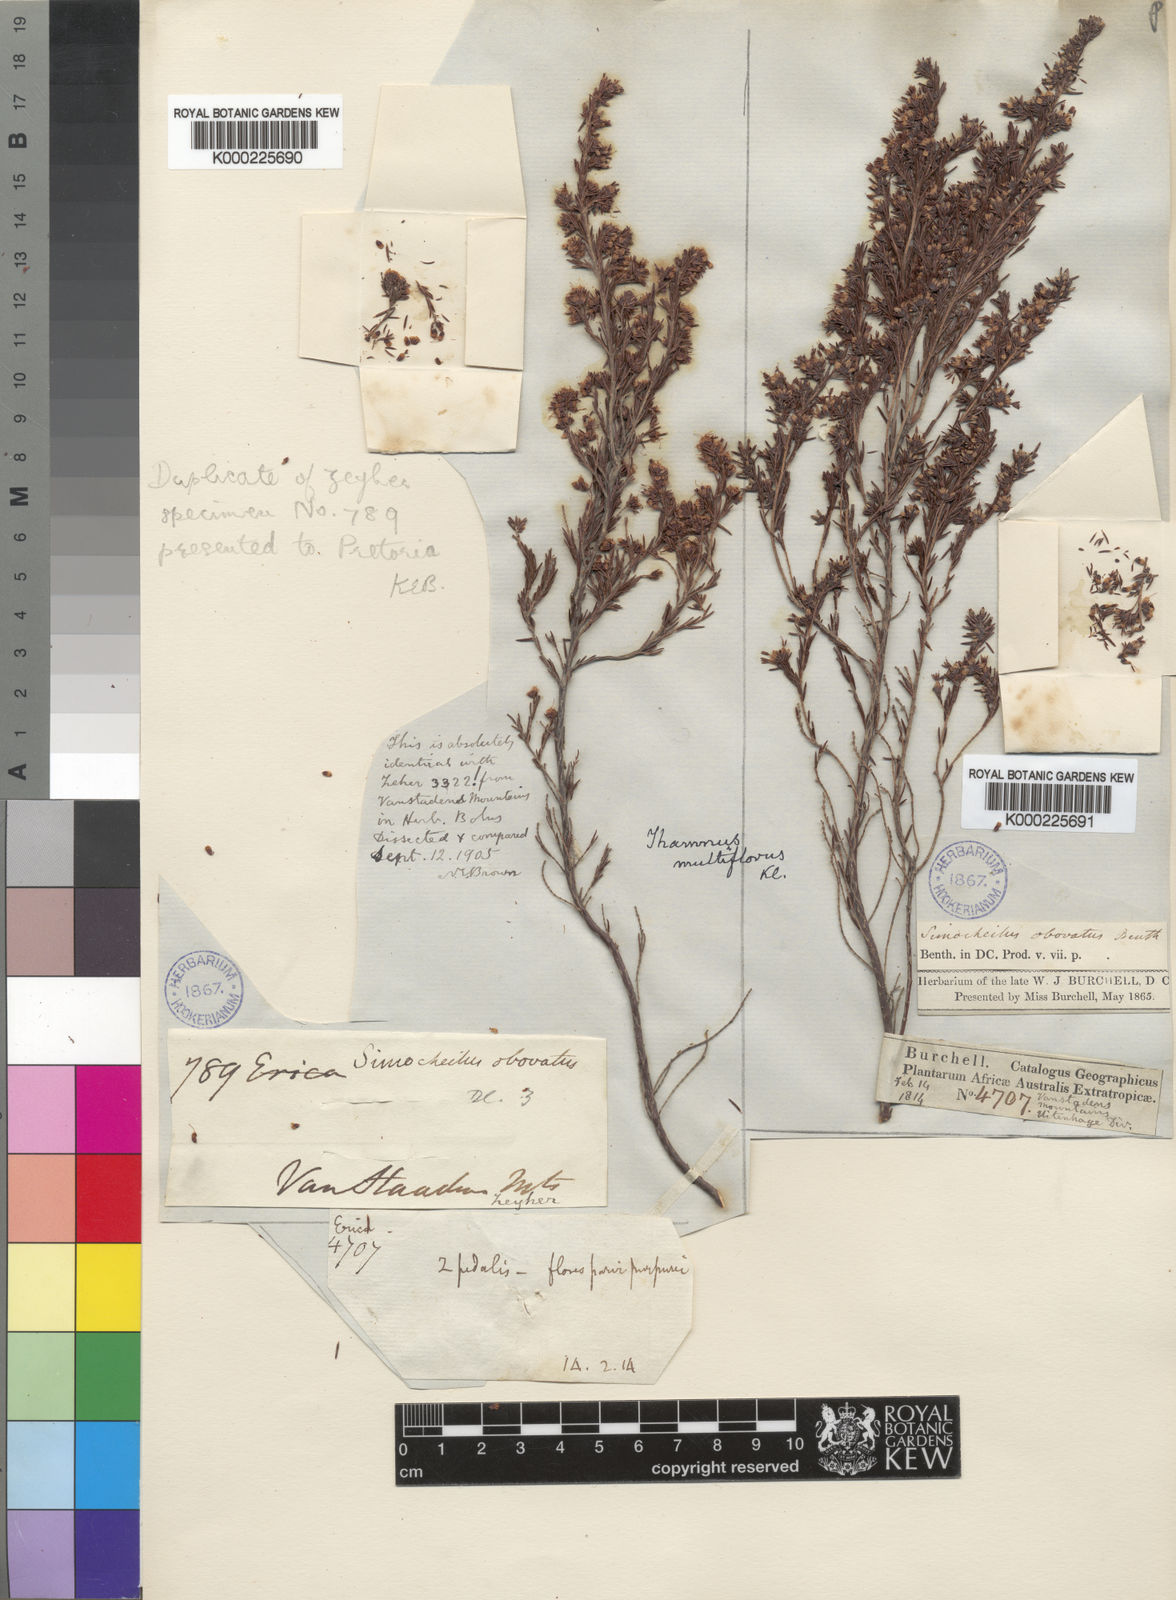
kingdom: Plantae
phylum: Tracheophyta
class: Magnoliopsida
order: Ericales
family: Ericaceae
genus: Erica
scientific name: Erica thamnoides
